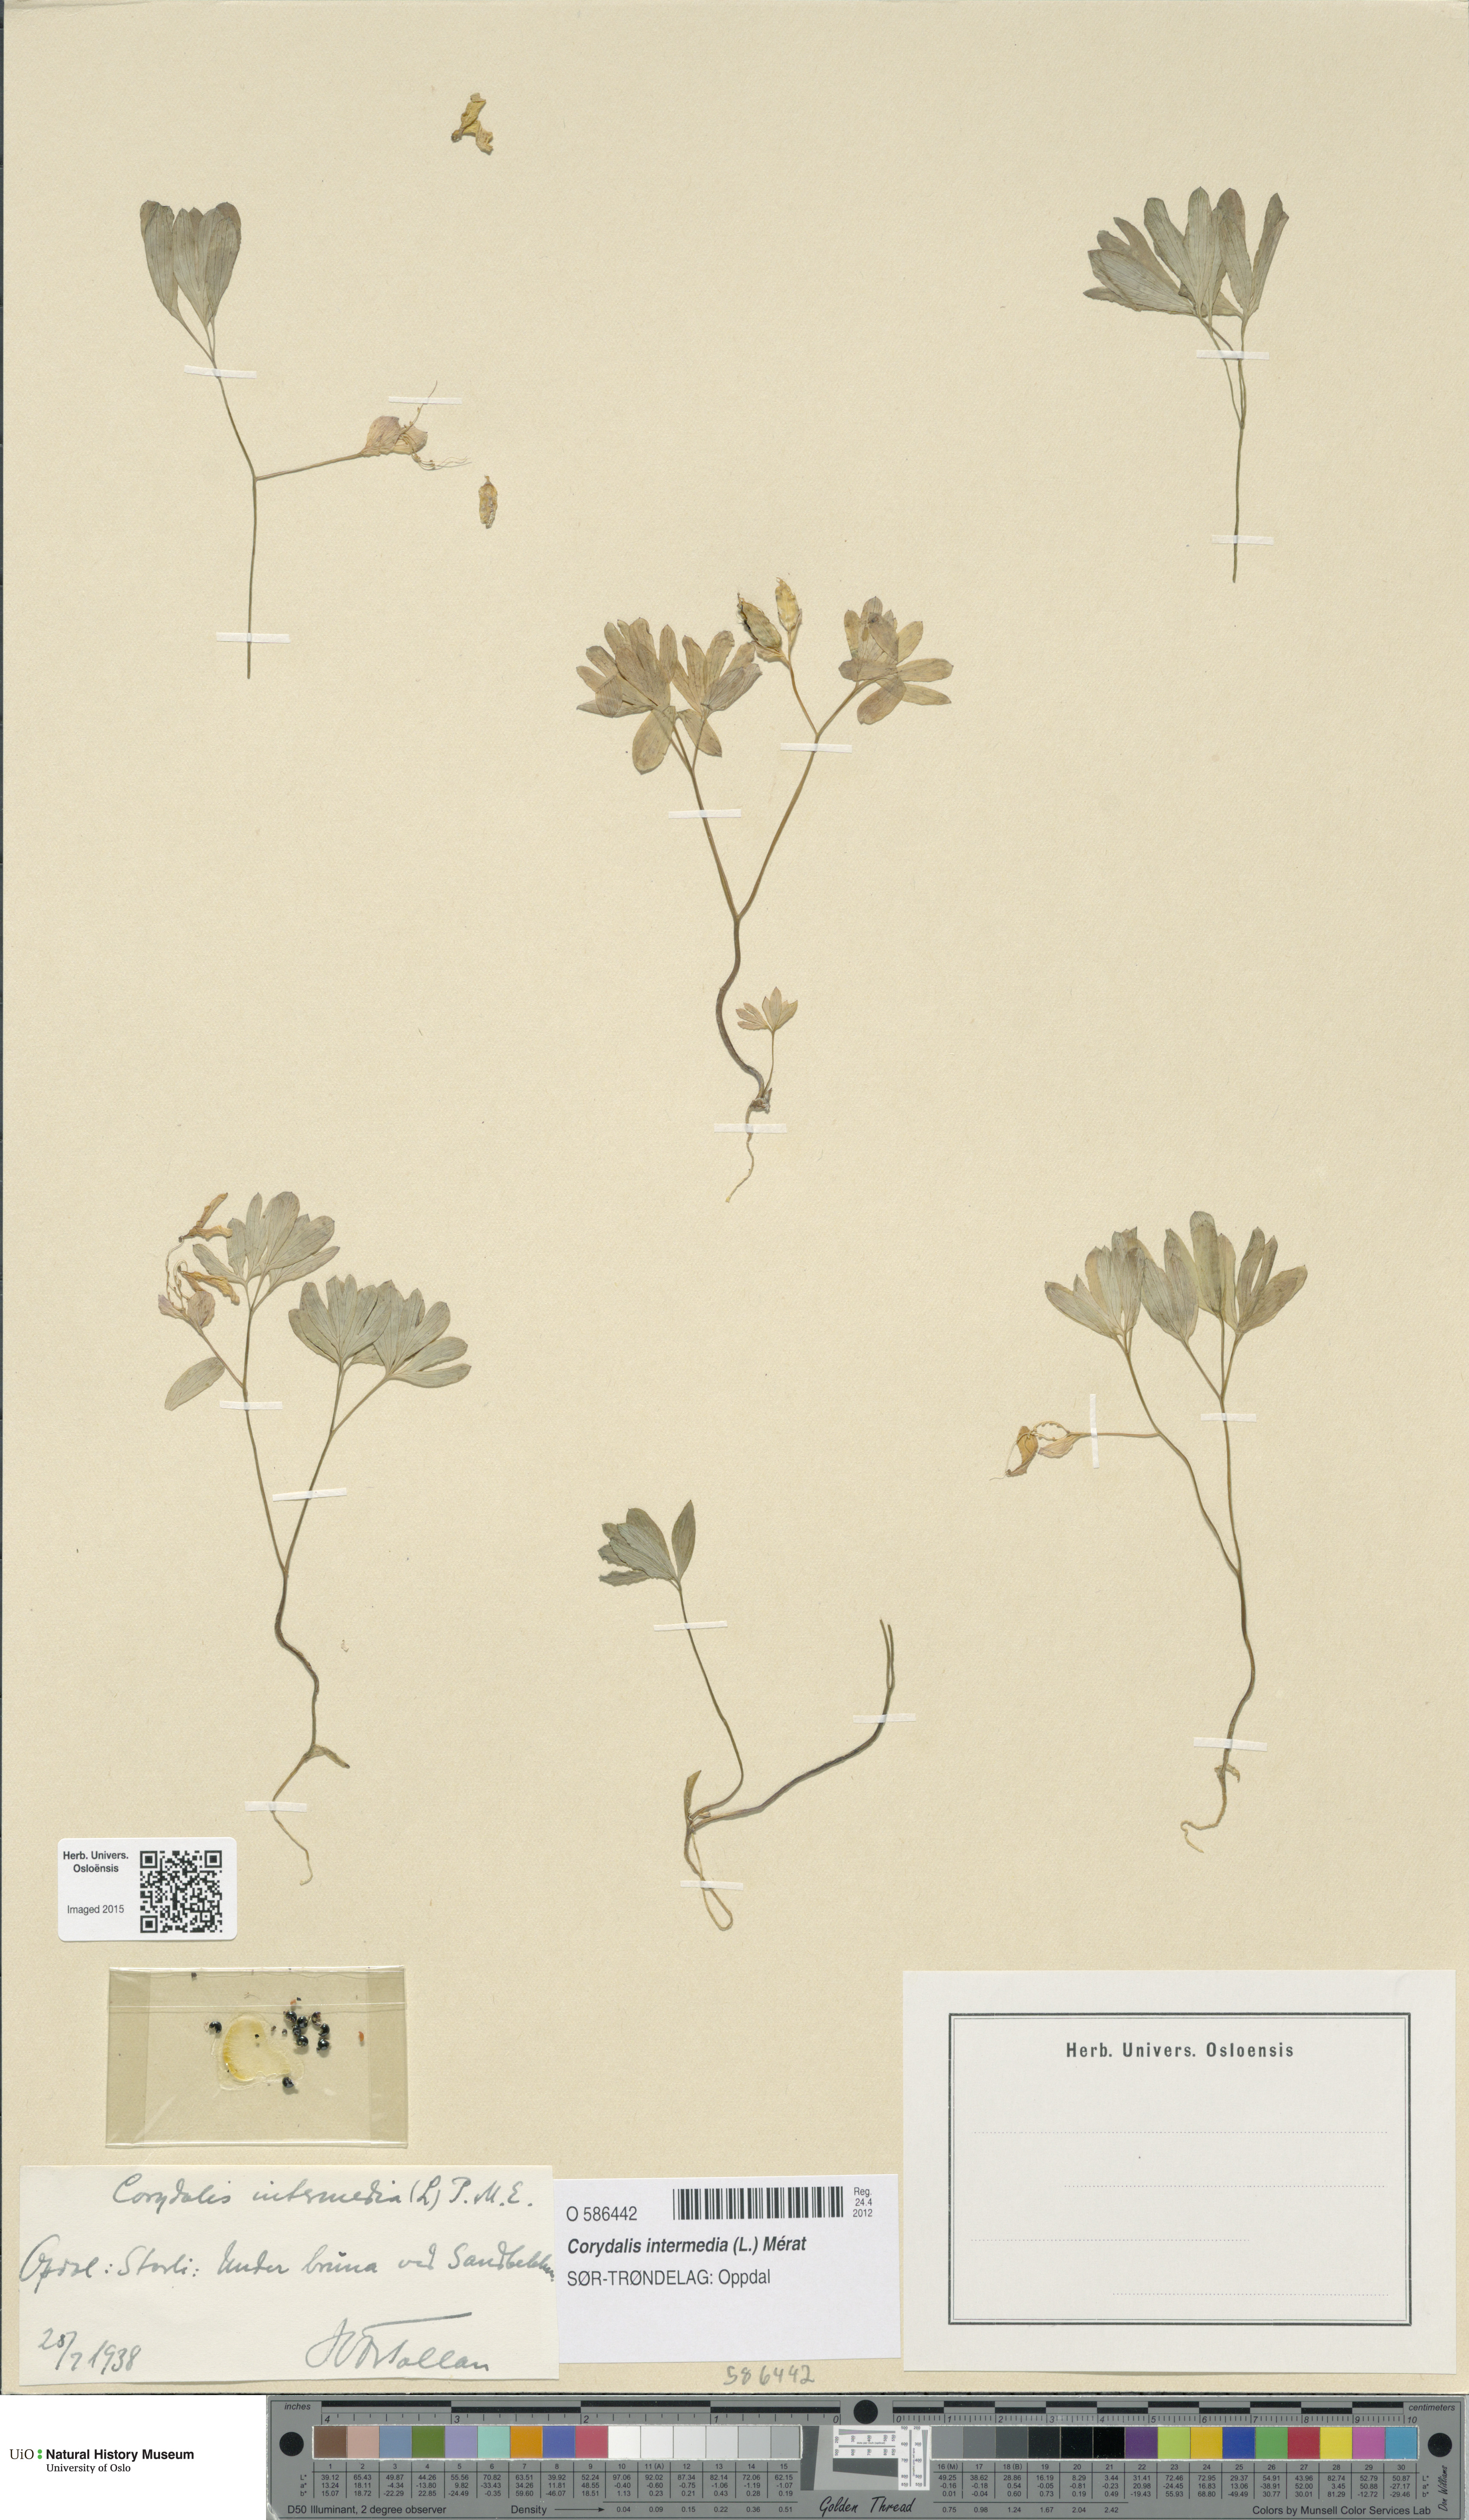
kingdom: Plantae
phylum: Tracheophyta
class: Magnoliopsida
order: Ranunculales
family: Papaveraceae
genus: Corydalis
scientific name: Corydalis intermedia
